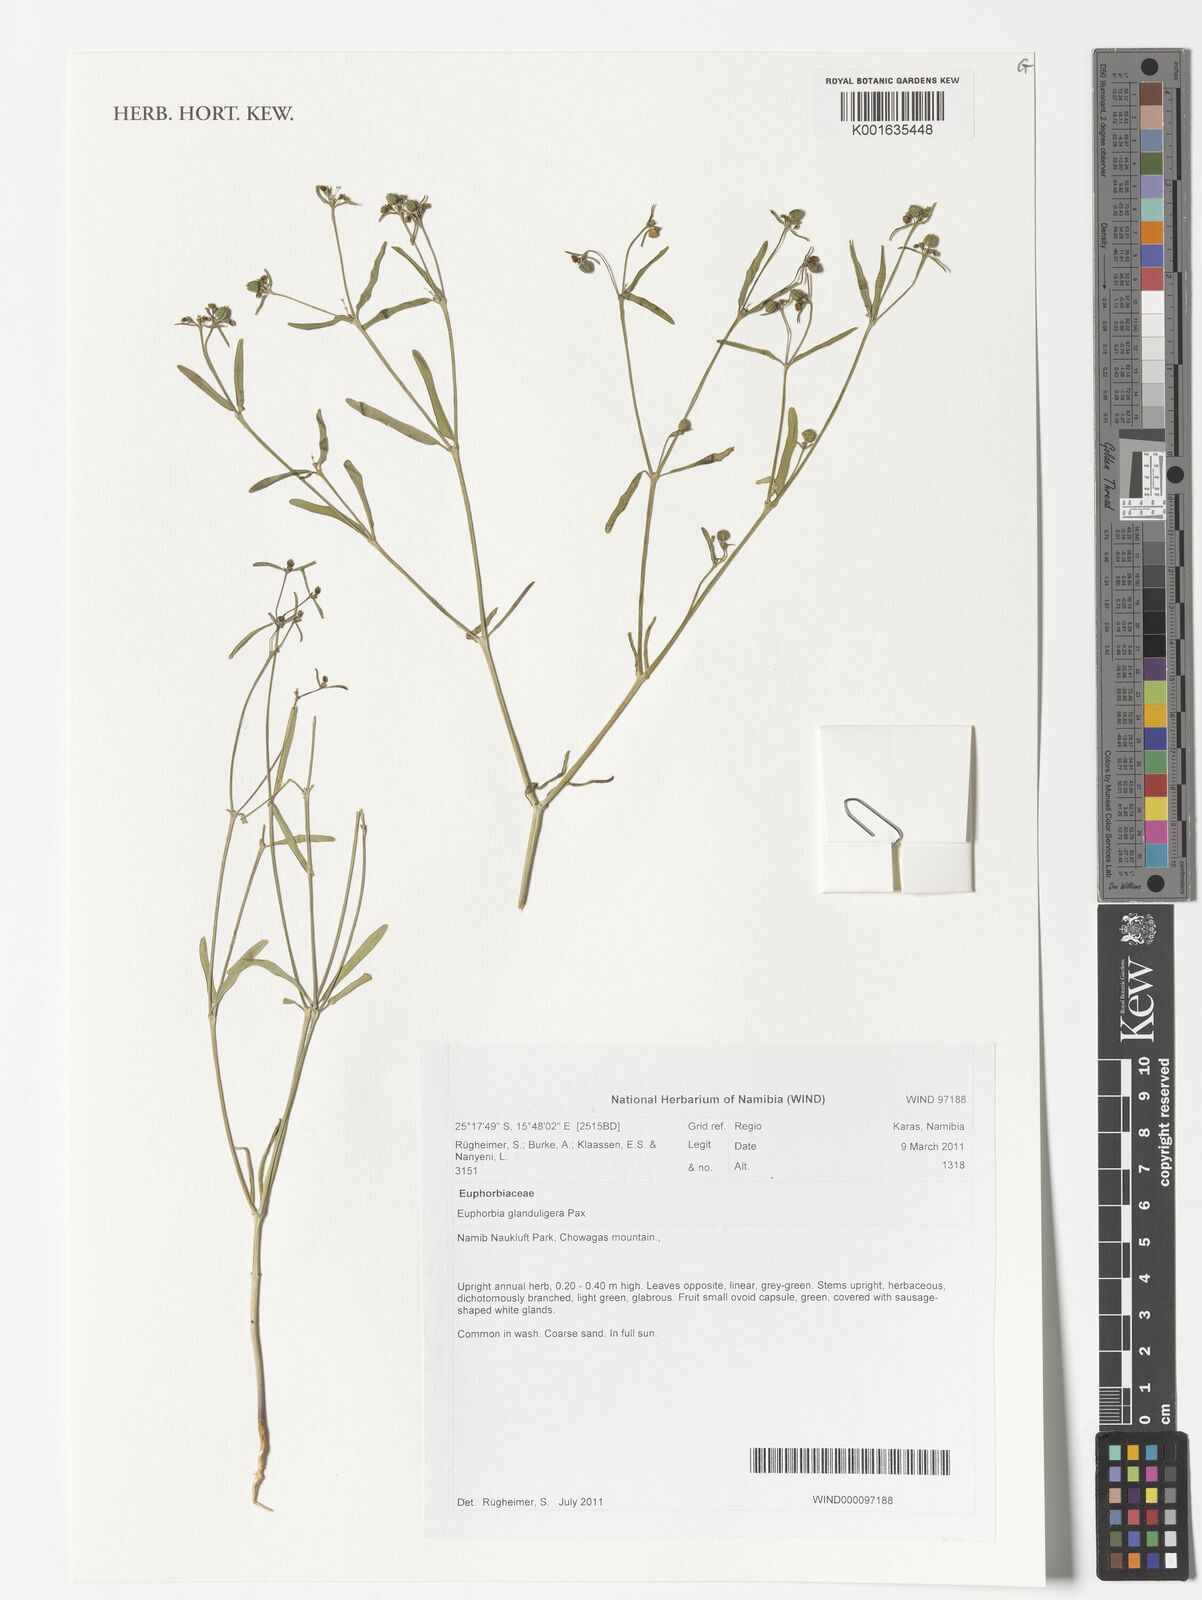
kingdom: Plantae
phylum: Tracheophyta
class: Magnoliopsida
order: Malpighiales
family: Euphorbiaceae
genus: Euphorbia
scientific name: Euphorbia glanduligera
